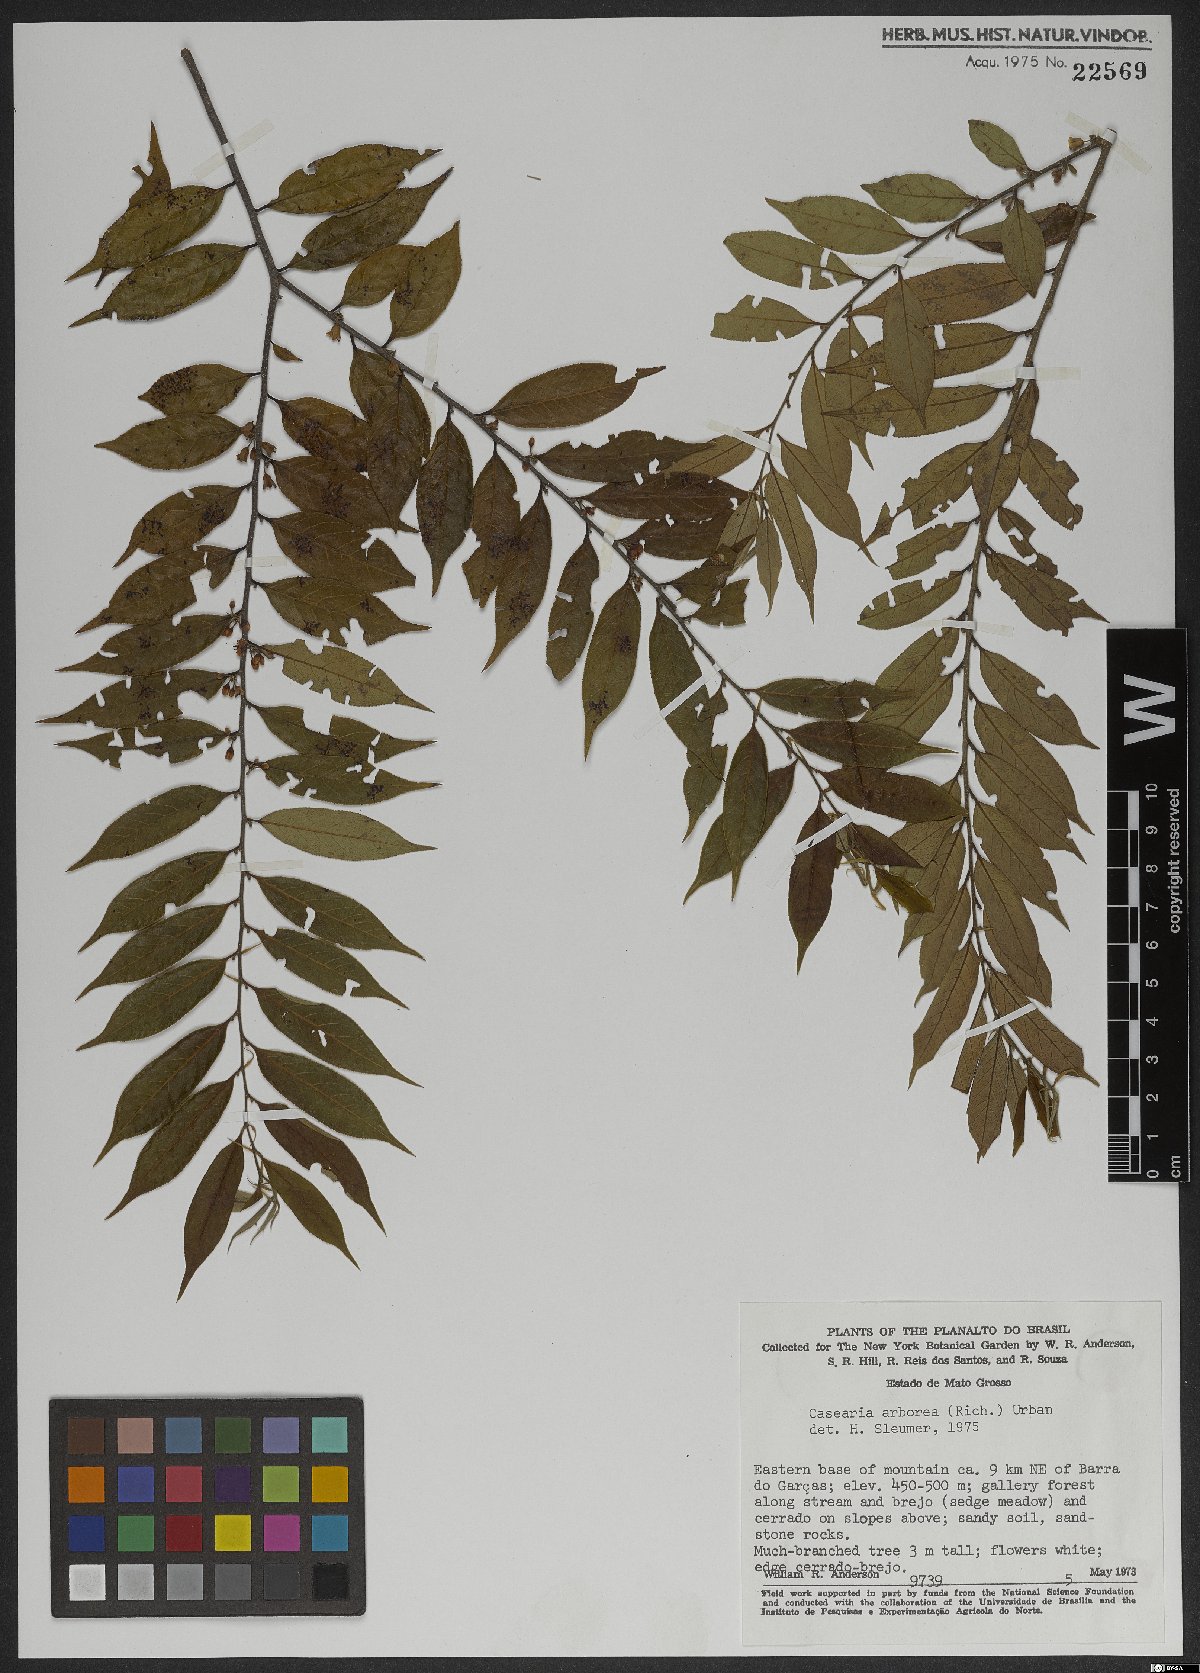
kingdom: Plantae
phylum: Tracheophyta
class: Magnoliopsida
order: Malpighiales
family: Salicaceae
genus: Casearia
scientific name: Casearia arborea
